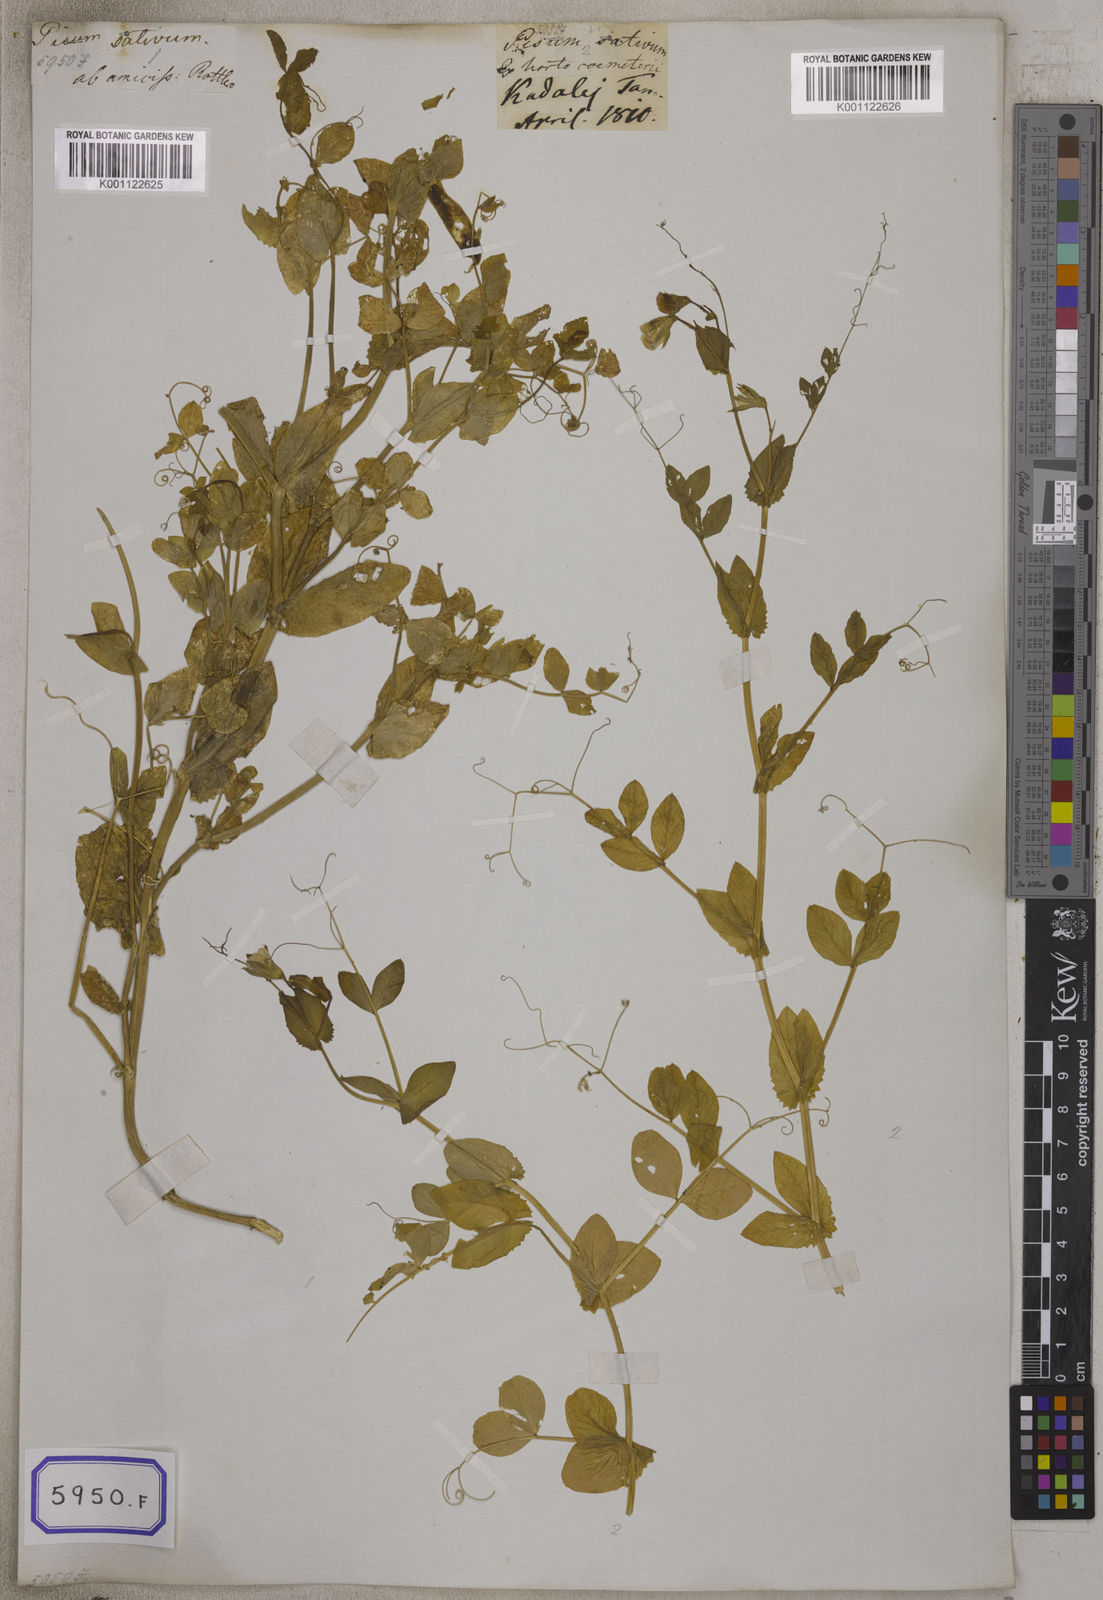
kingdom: Plantae
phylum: Tracheophyta
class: Magnoliopsida
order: Fabales
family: Fabaceae
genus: Lathyrus
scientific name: Lathyrus oleraceus
